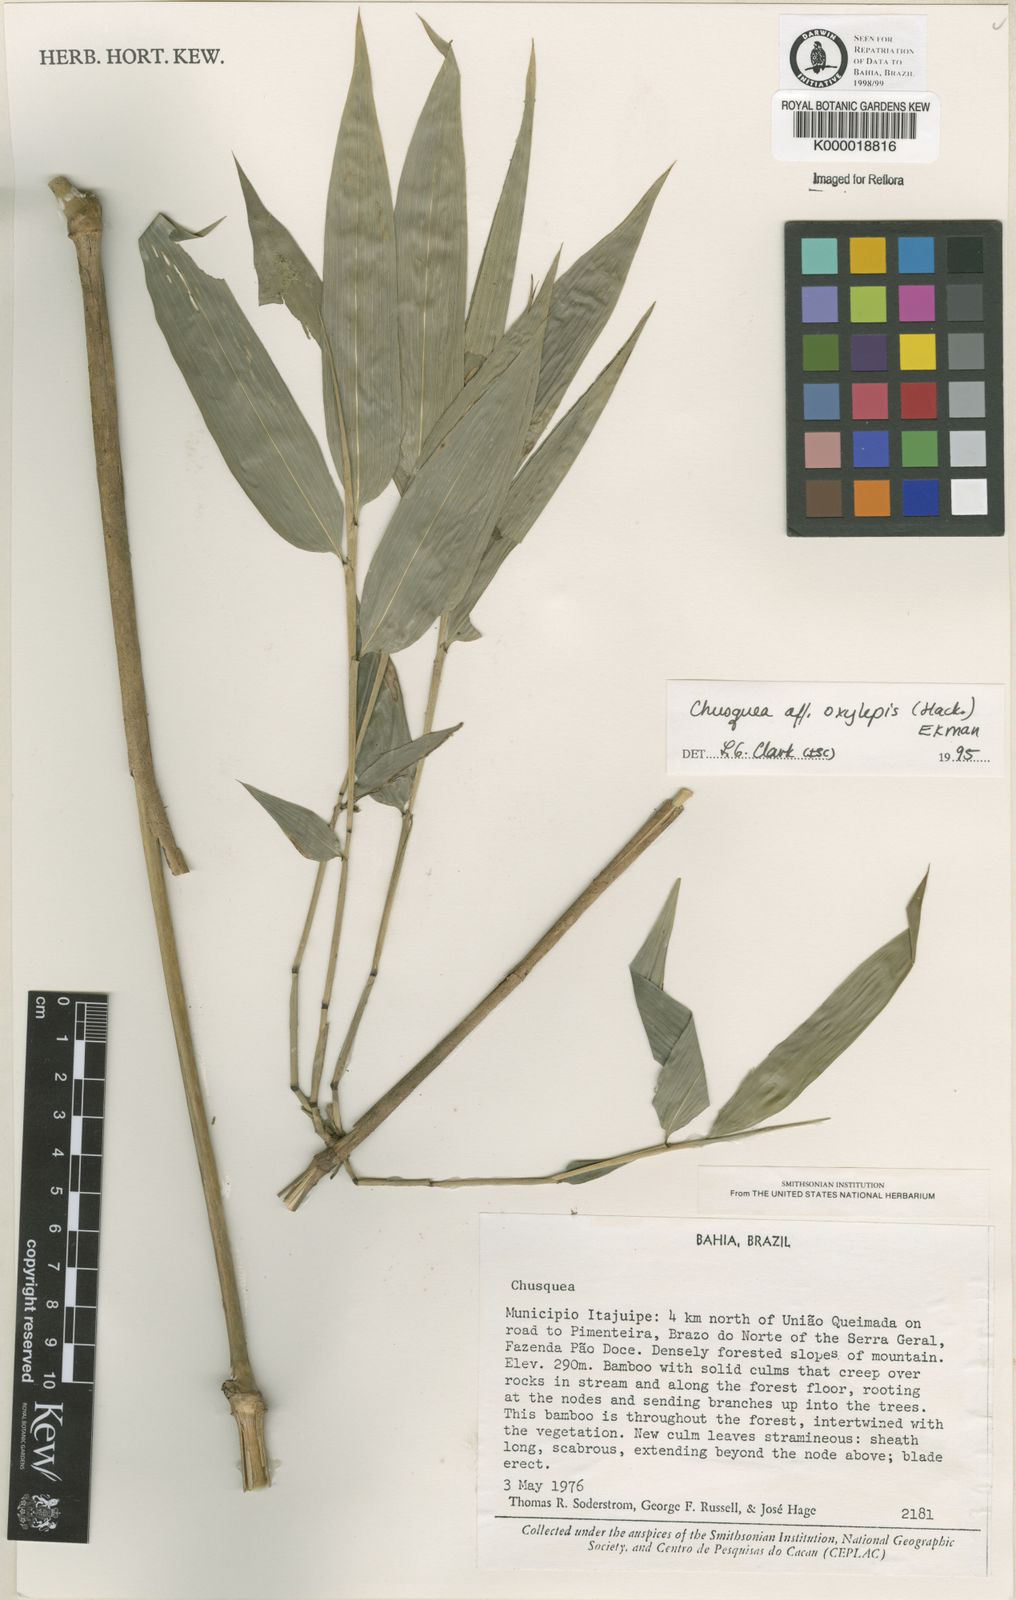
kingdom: Plantae
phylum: Tracheophyta
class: Liliopsida
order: Poales
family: Poaceae
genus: Chusquea
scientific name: Chusquea oxylepis
